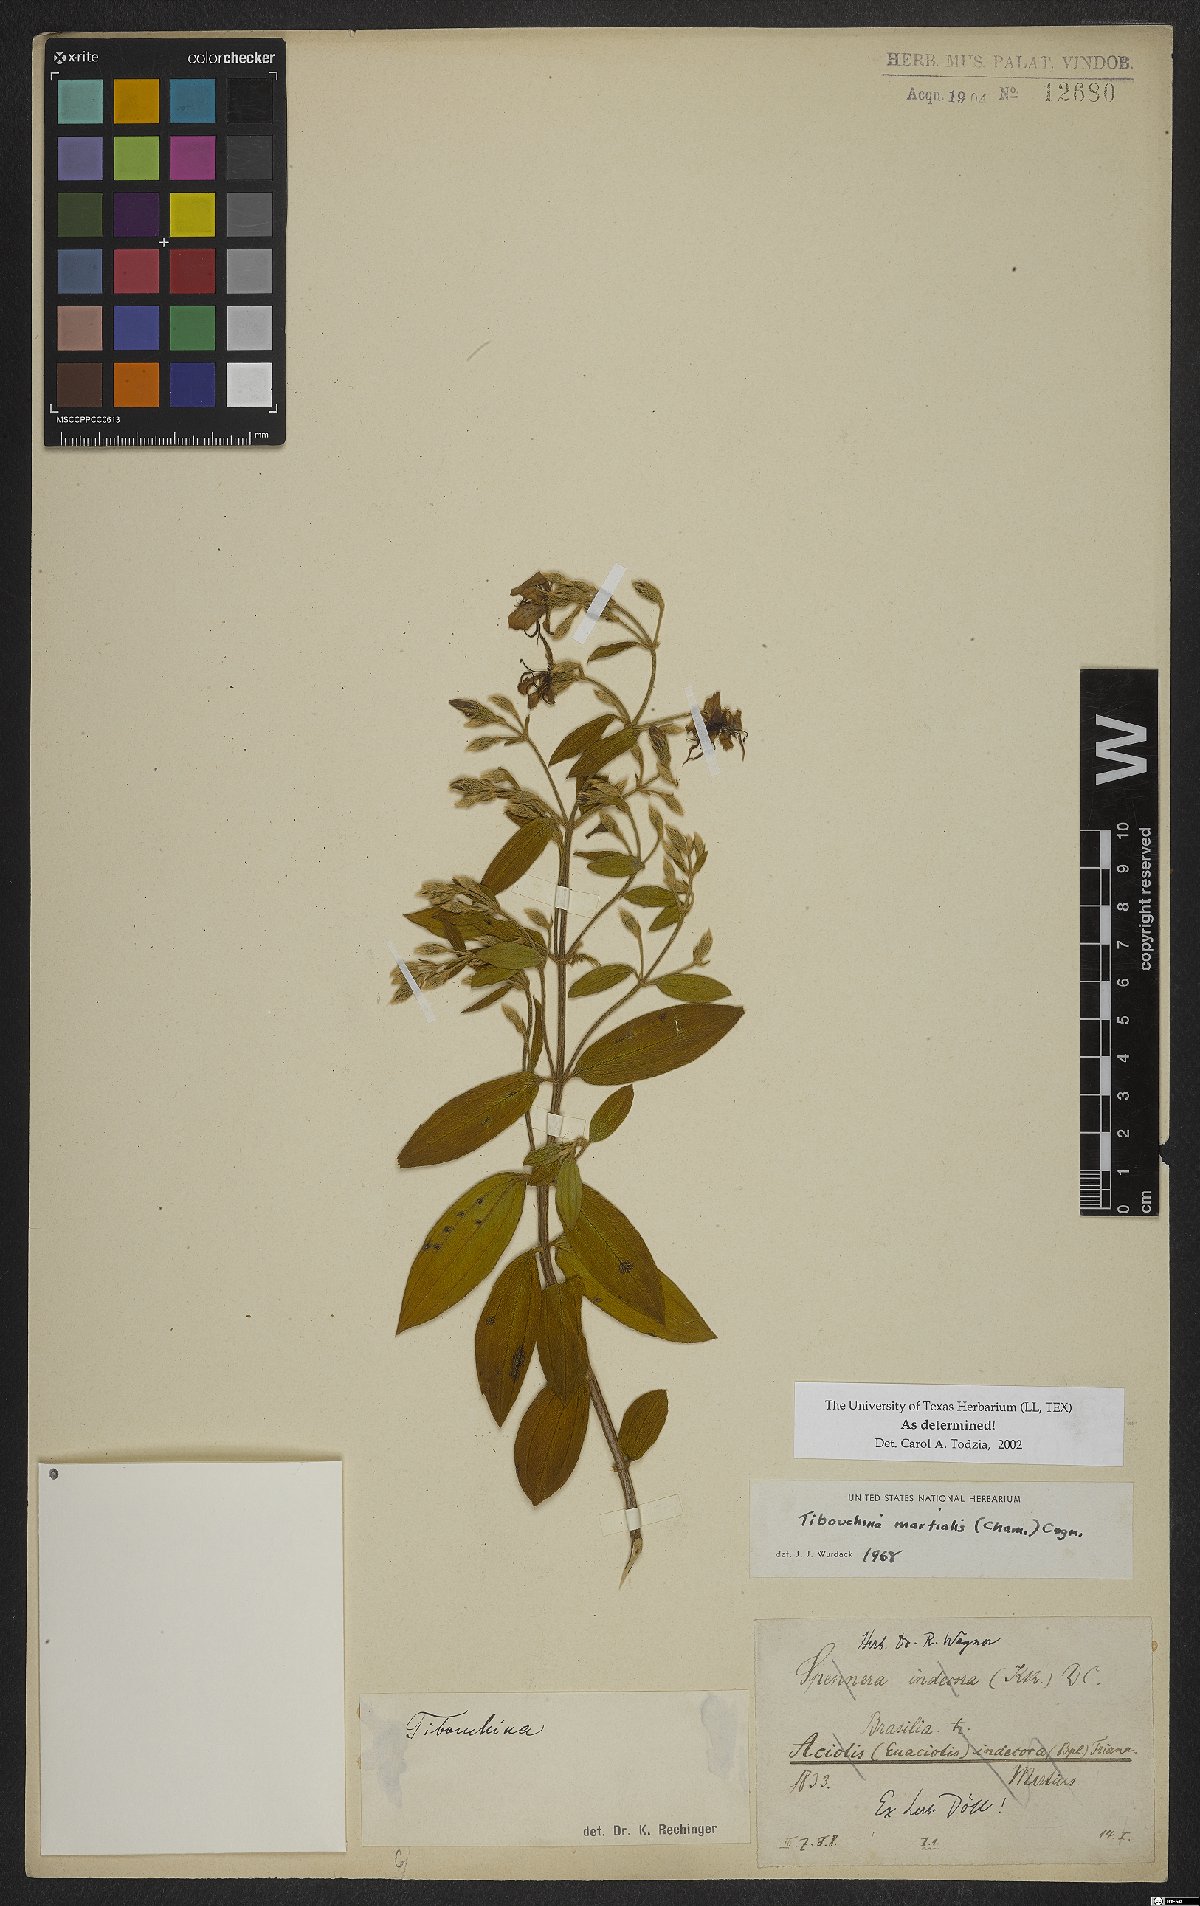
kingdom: Plantae
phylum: Tracheophyta
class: Magnoliopsida
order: Myrtales
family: Melastomataceae
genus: Pleroma
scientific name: Pleroma martiale
